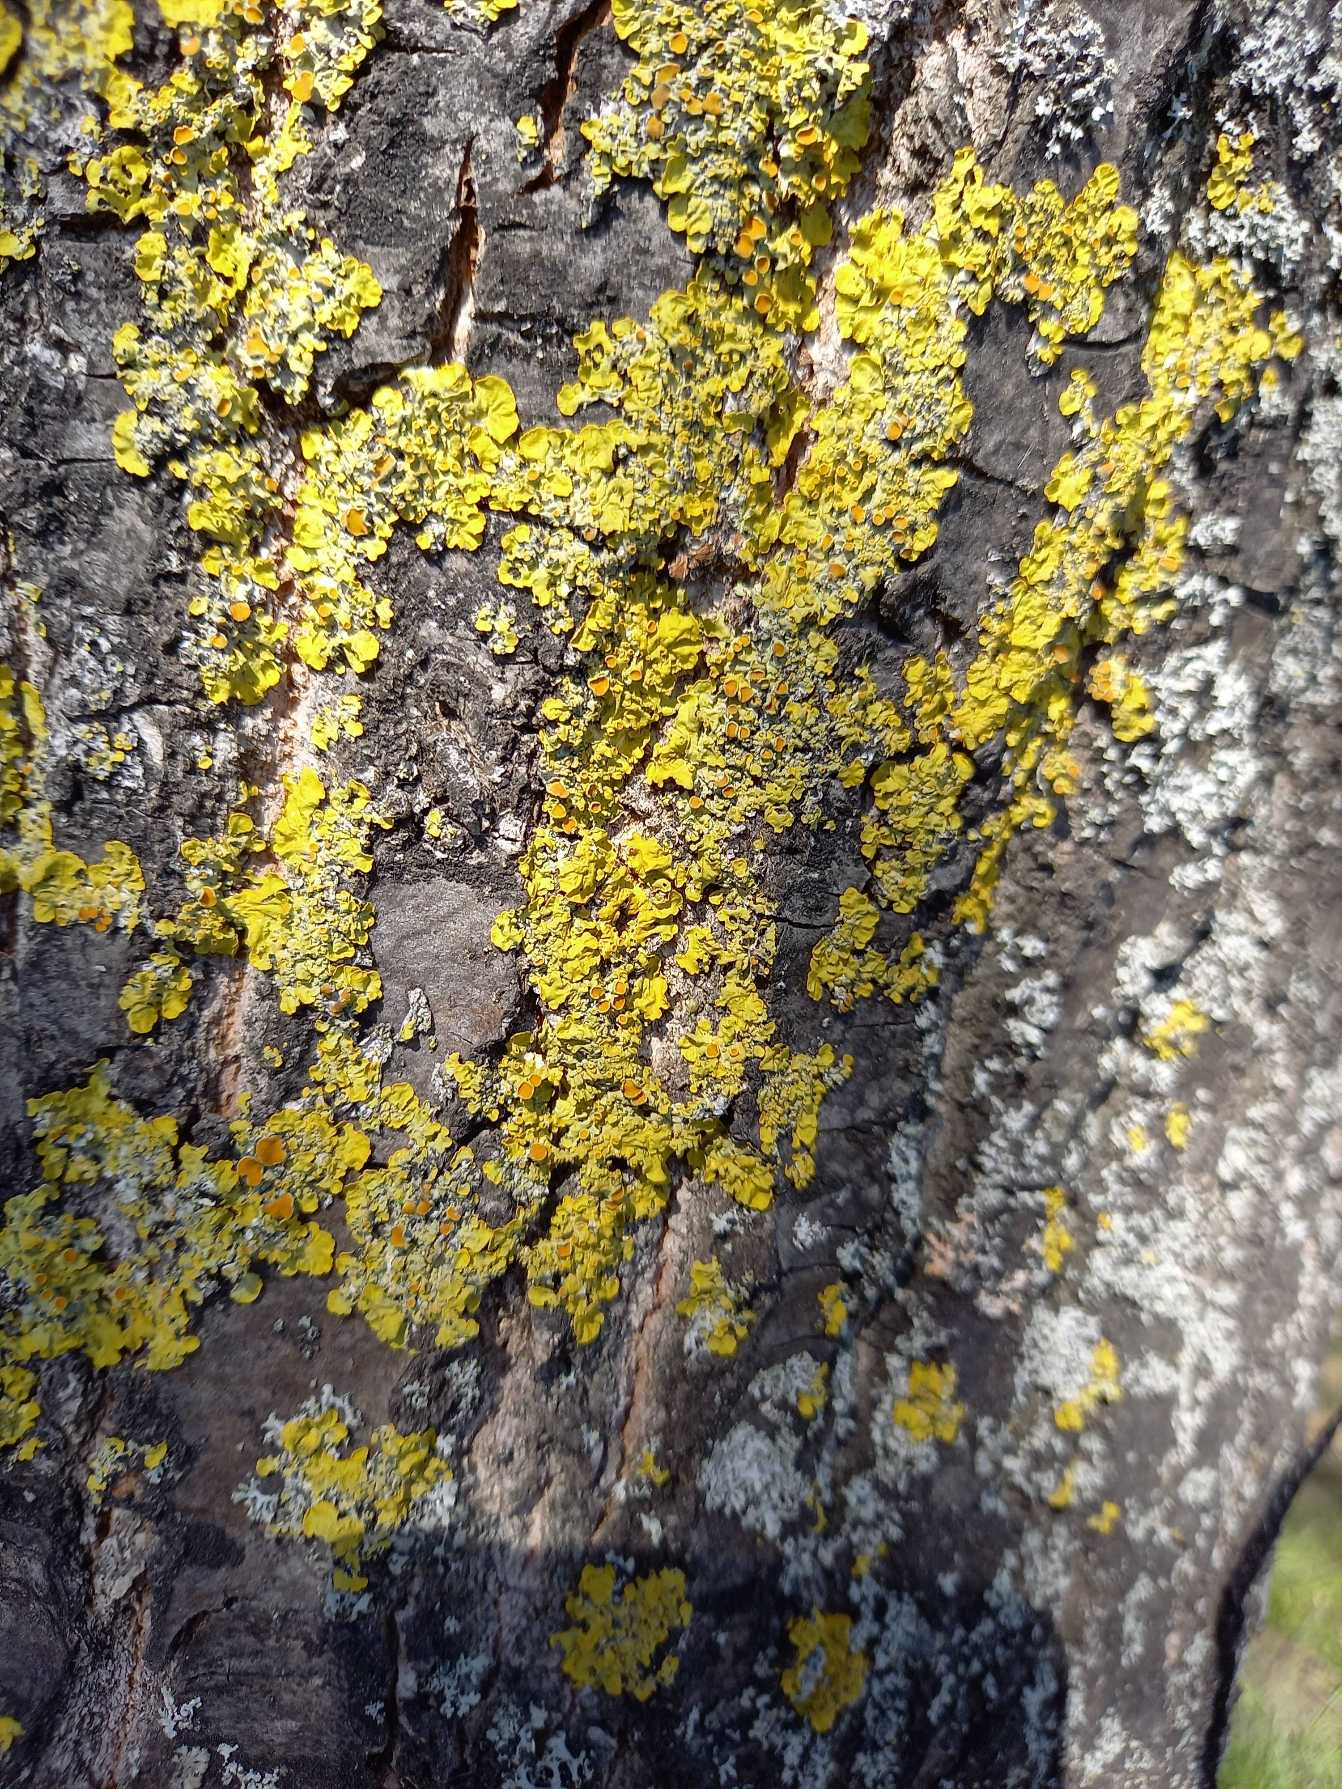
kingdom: Fungi
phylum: Ascomycota
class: Lecanoromycetes
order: Teloschistales
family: Teloschistaceae
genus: Xanthoria
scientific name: Xanthoria parietina
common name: Almindelig væggelav
